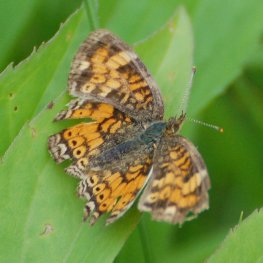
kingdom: Animalia
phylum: Arthropoda
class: Insecta
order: Lepidoptera
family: Nymphalidae
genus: Phyciodes
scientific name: Phyciodes tharos
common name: Northern Crescent
